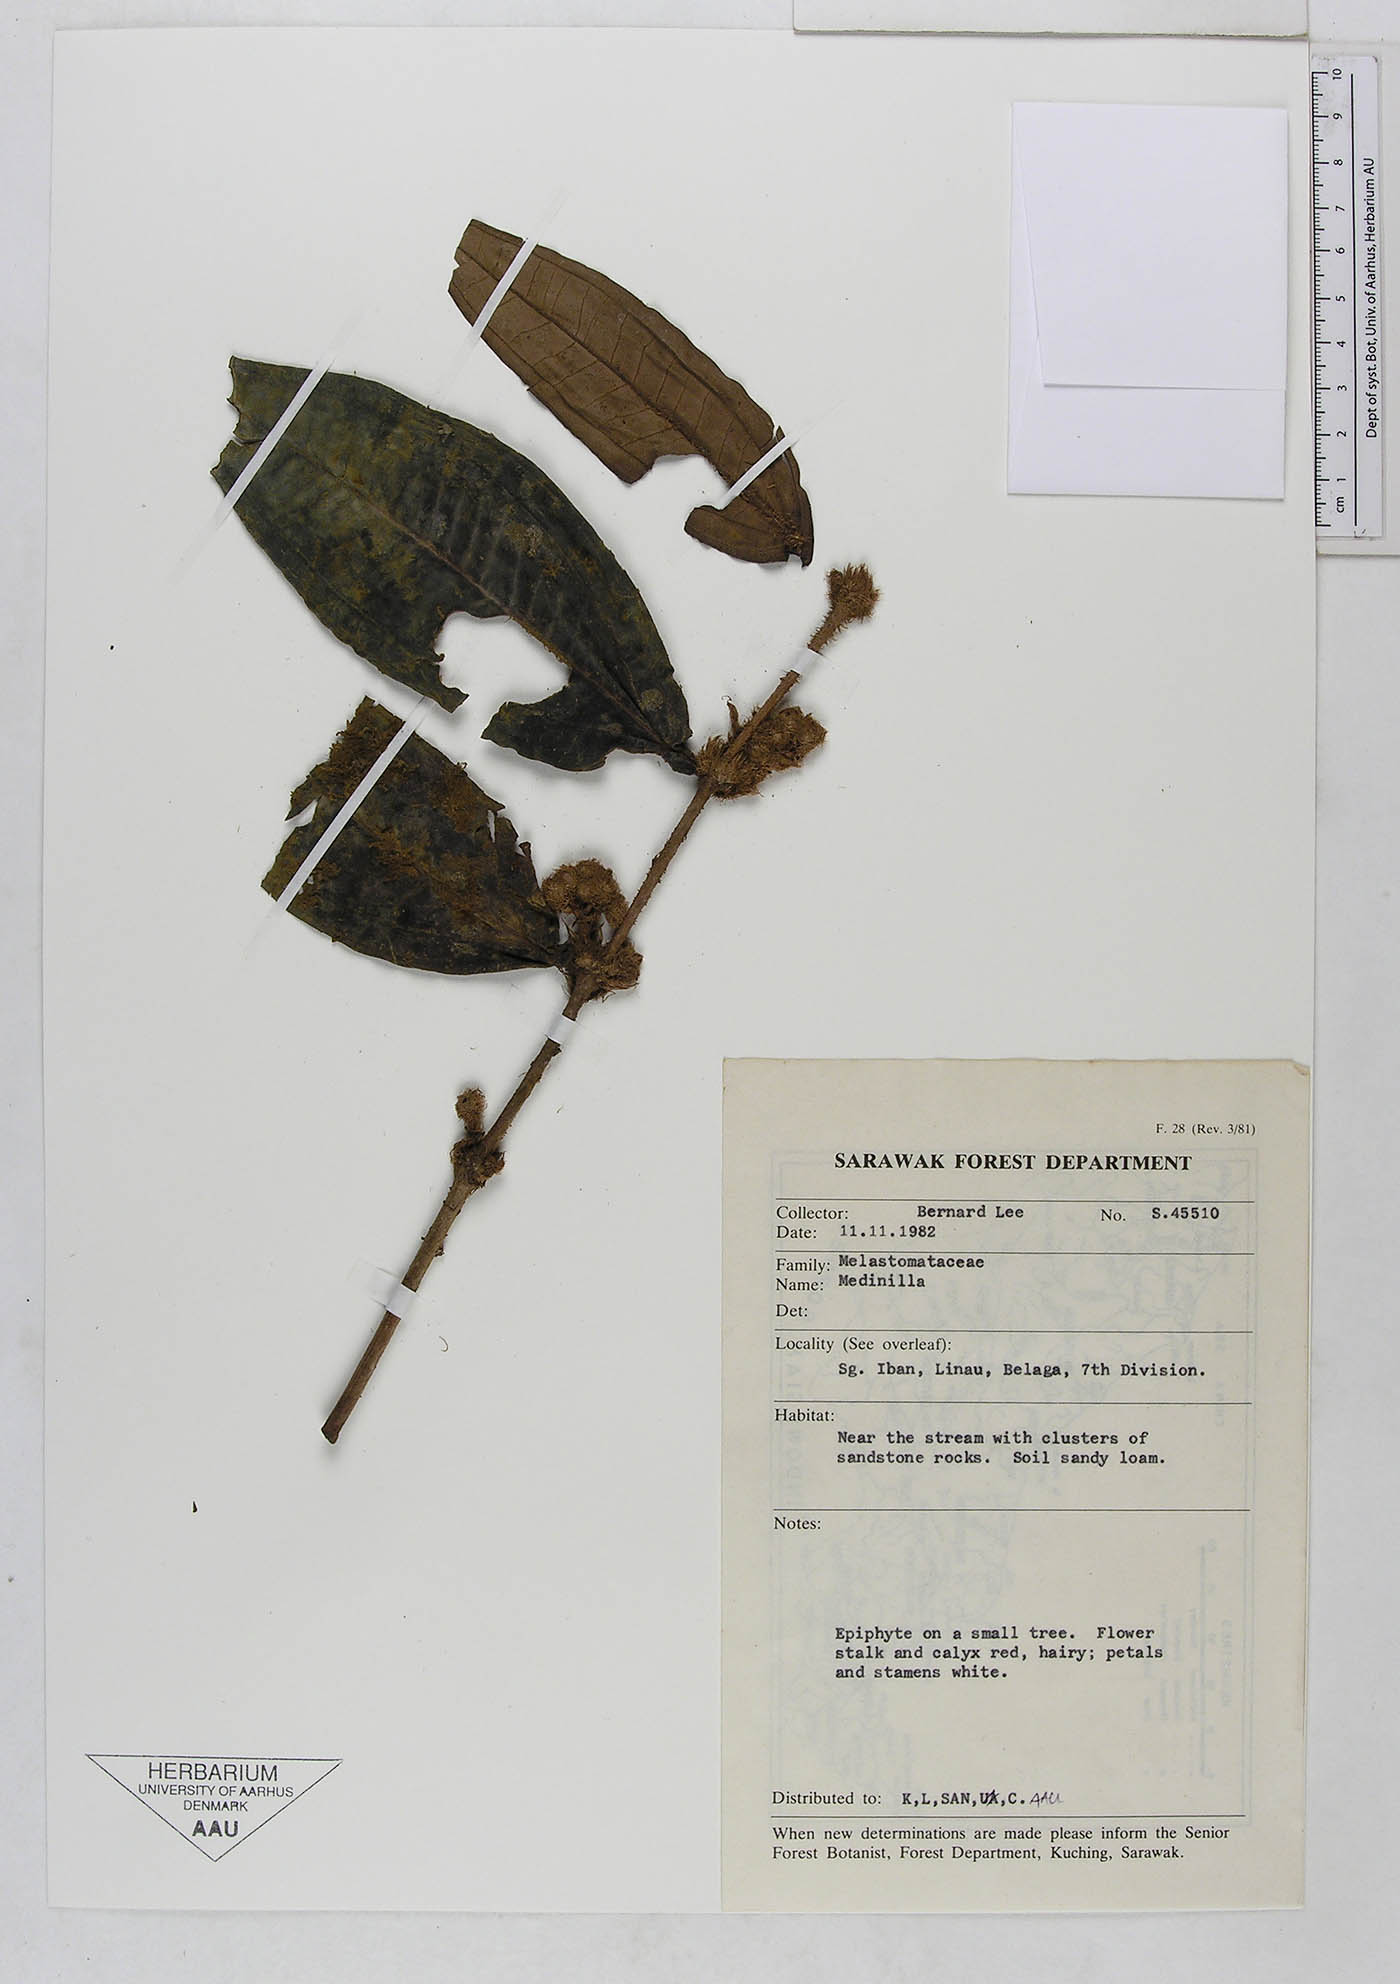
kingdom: Plantae
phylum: Tracheophyta
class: Magnoliopsida
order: Myrtales
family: Melastomataceae
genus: Medinilla
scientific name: Medinilla
